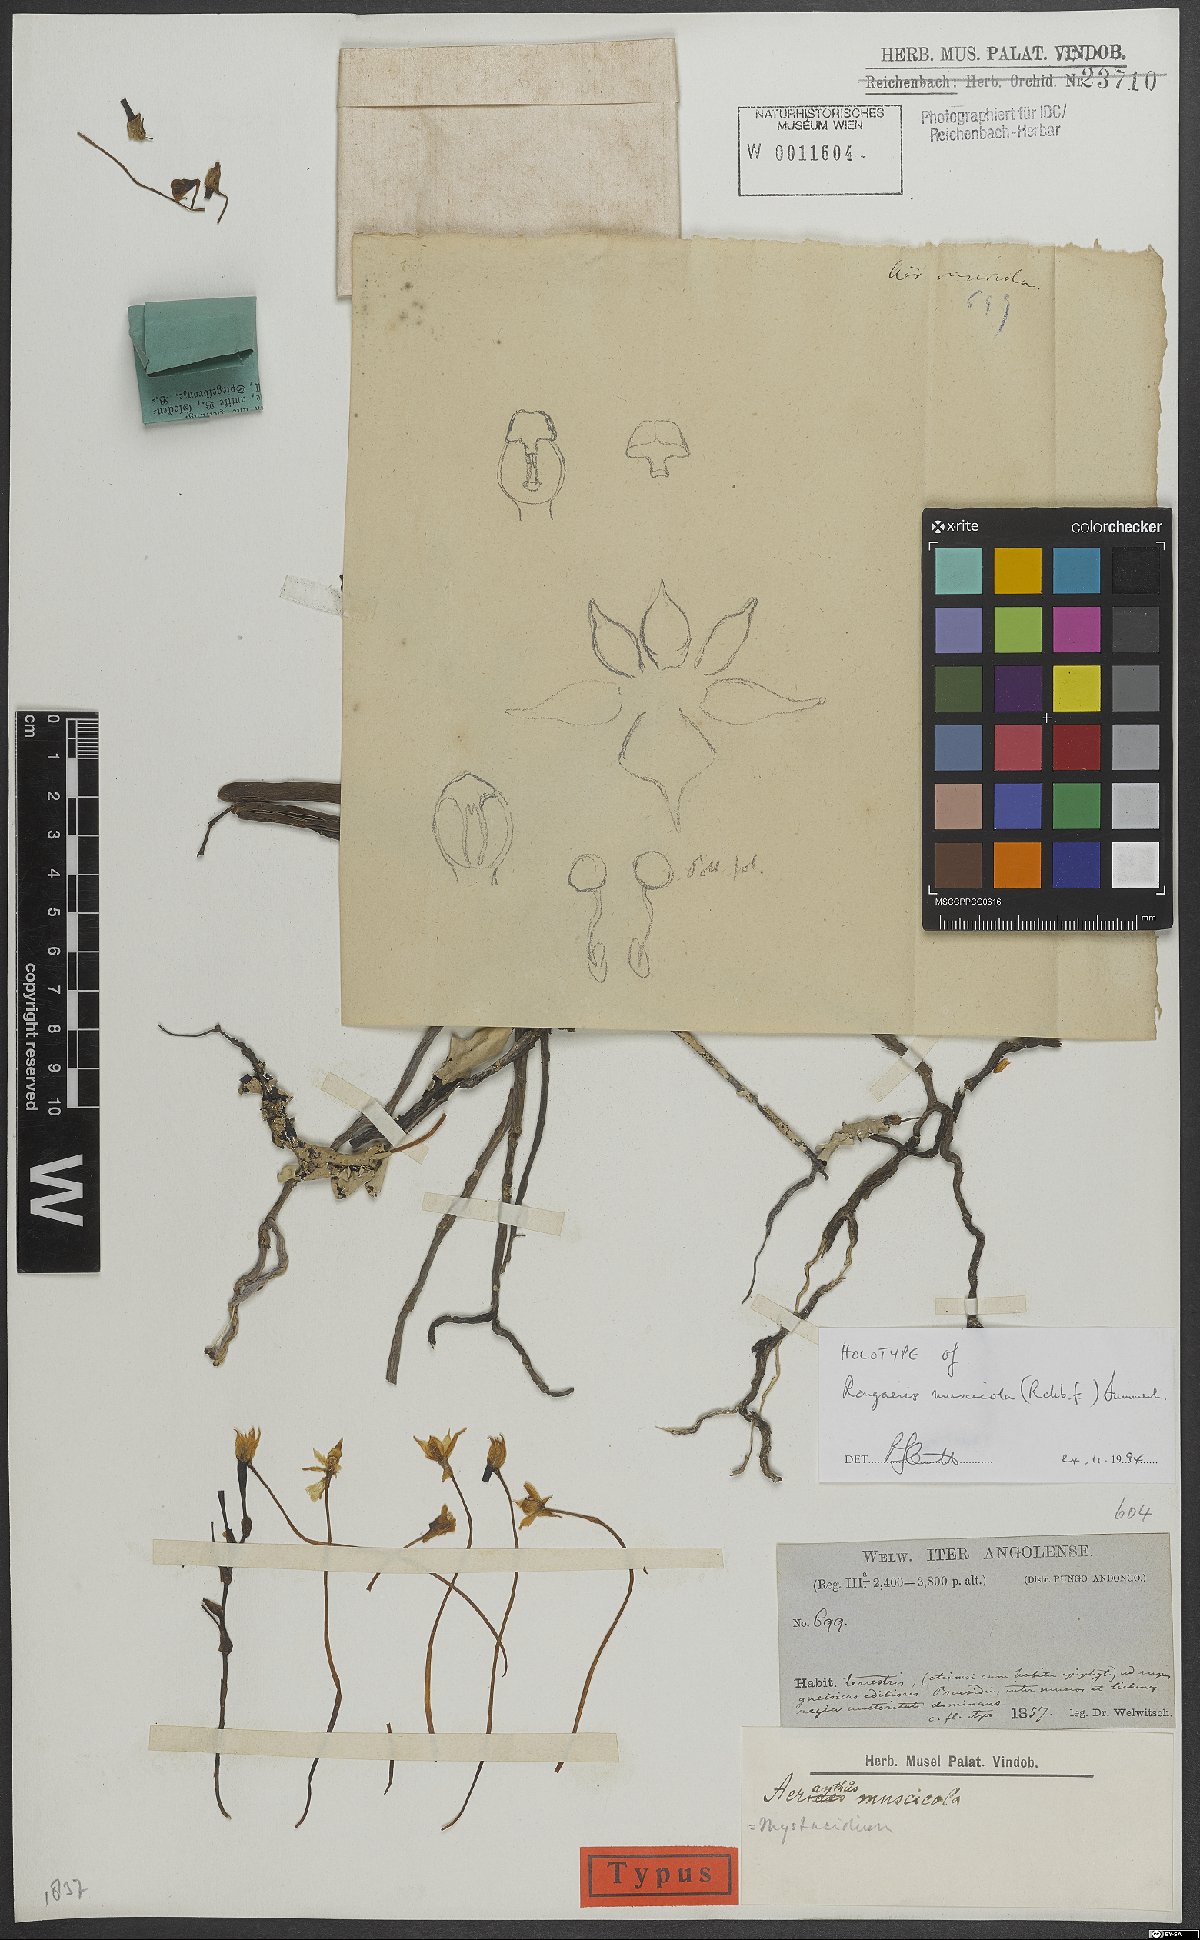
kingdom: Plantae
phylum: Tracheophyta
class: Liliopsida
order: Asparagales
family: Orchidaceae
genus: Rangaeris
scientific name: Rangaeris
